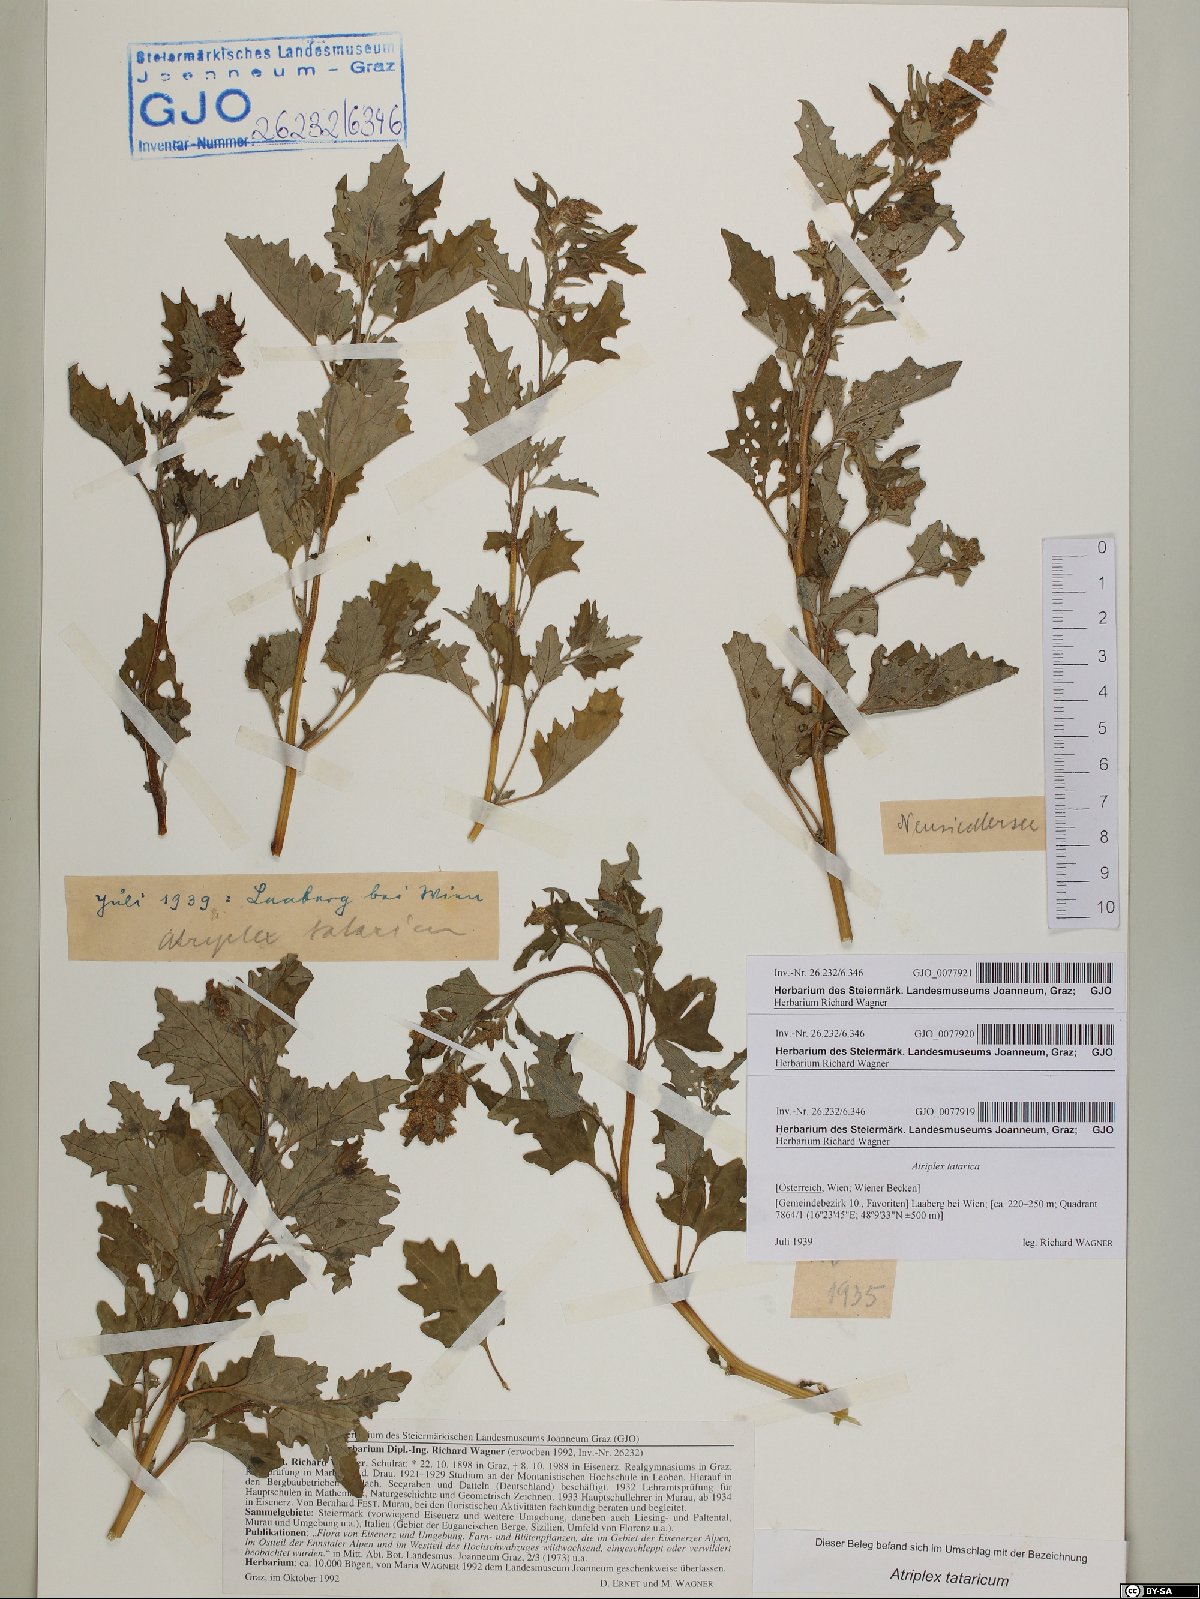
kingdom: Plantae
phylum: Tracheophyta
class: Magnoliopsida
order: Caryophyllales
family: Amaranthaceae
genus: Atriplex
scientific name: Atriplex tatarica
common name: Tatarian orache
